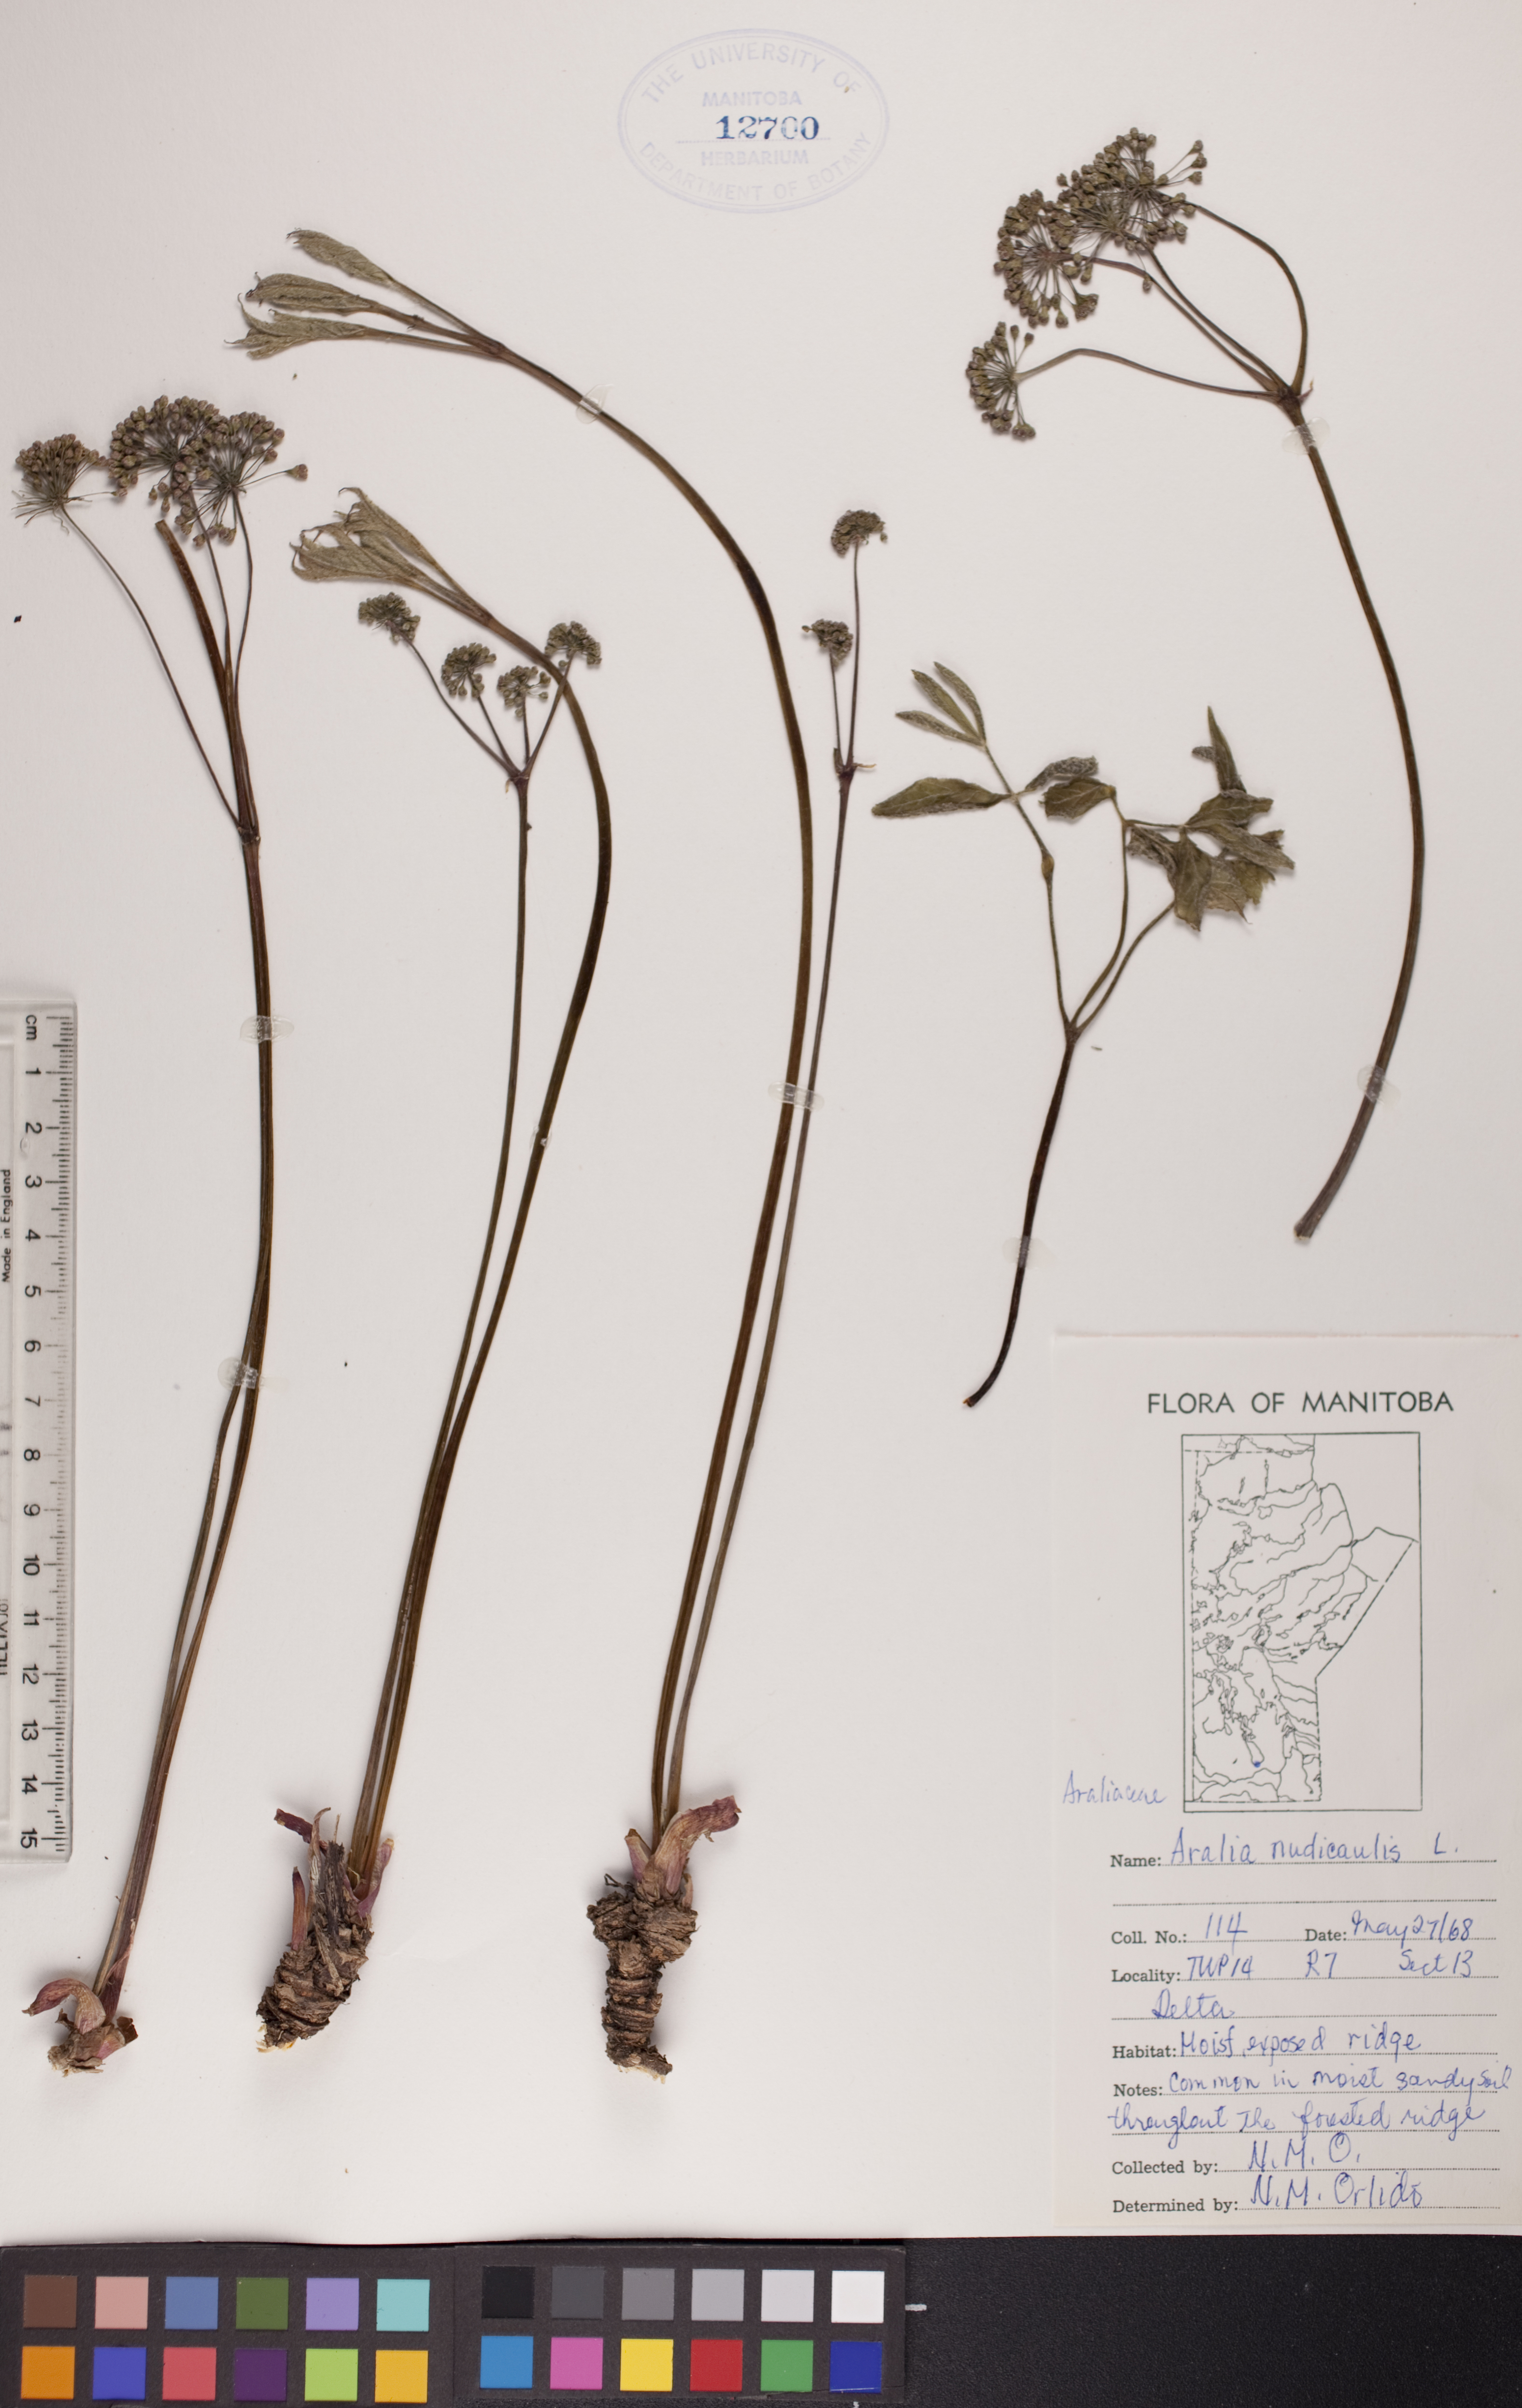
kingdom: Plantae
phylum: Tracheophyta
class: Magnoliopsida
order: Apiales
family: Araliaceae
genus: Aralia
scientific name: Aralia nudicaulis
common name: Wild sarsaparilla
